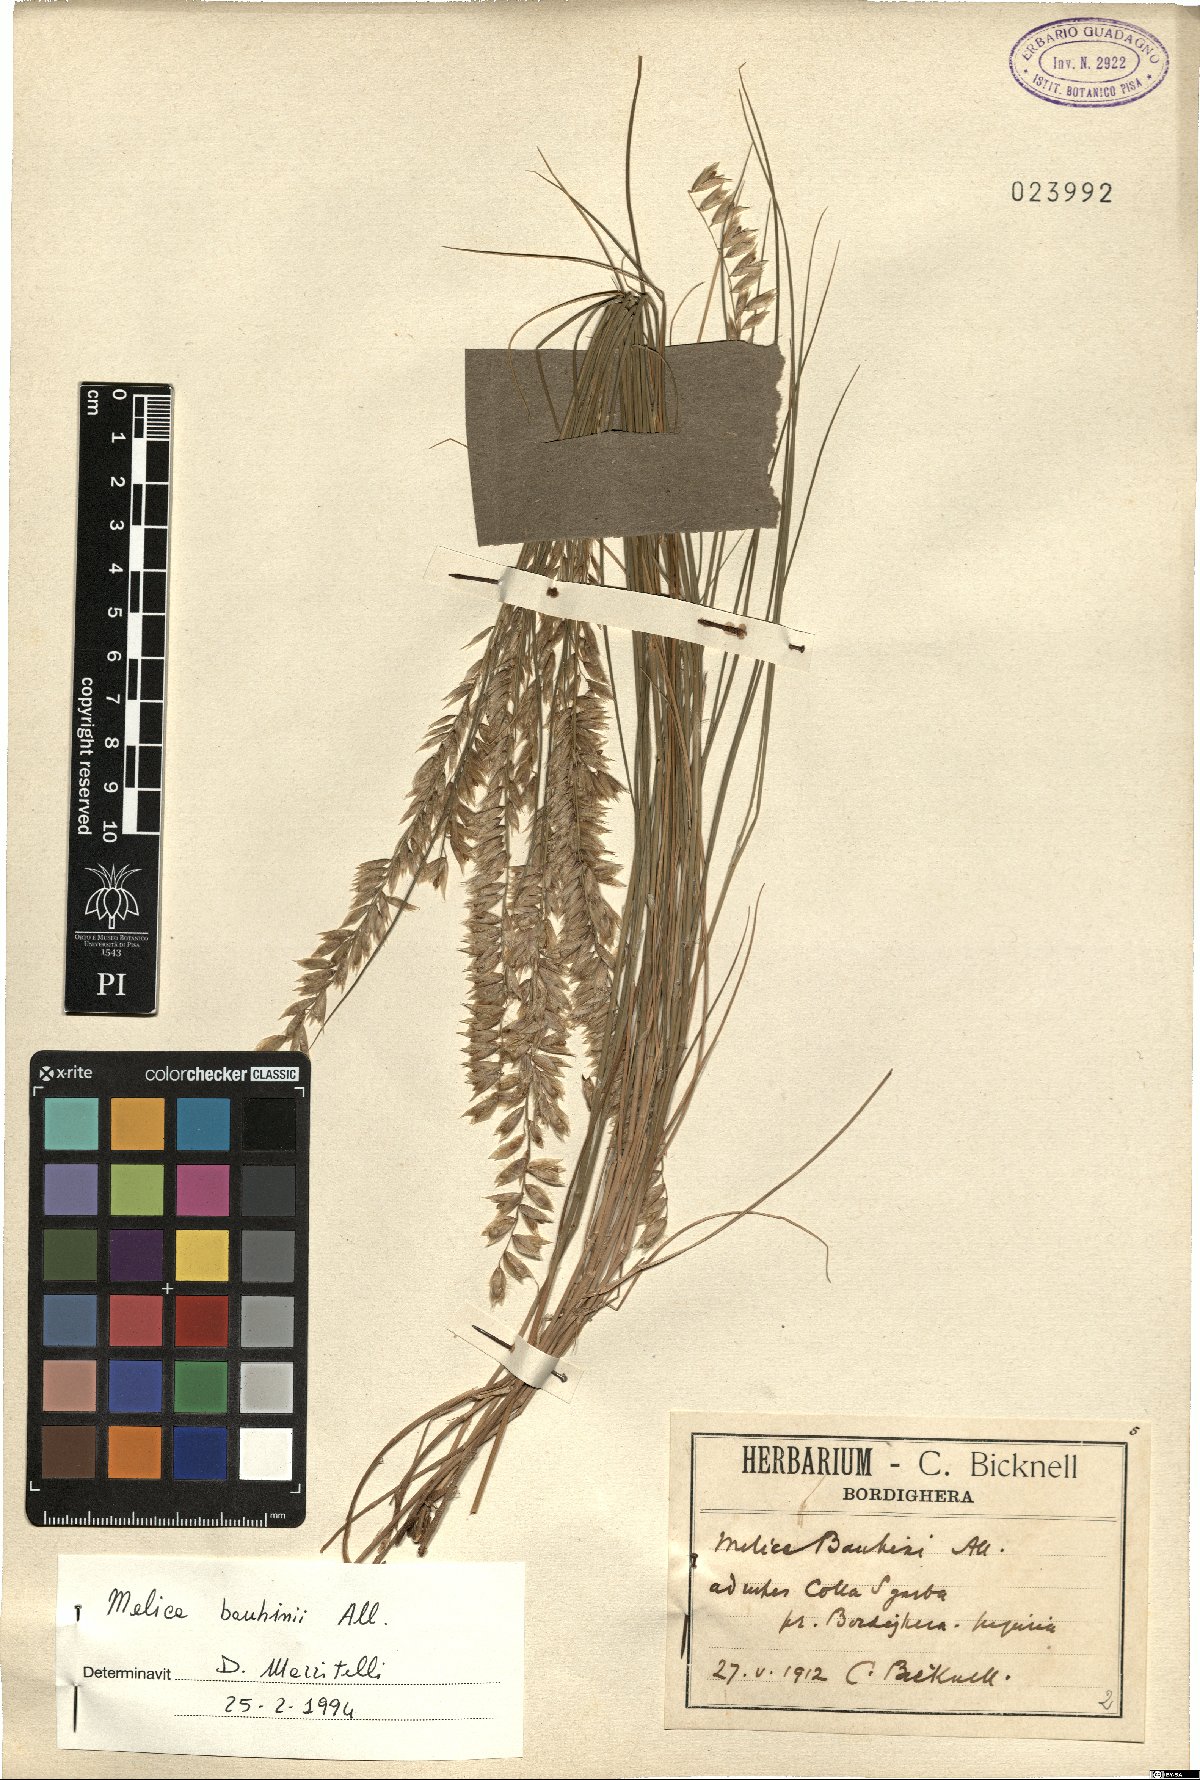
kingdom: Plantae
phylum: Tracheophyta
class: Liliopsida
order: Poales
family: Poaceae
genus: Melica
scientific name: Melica amethystina
